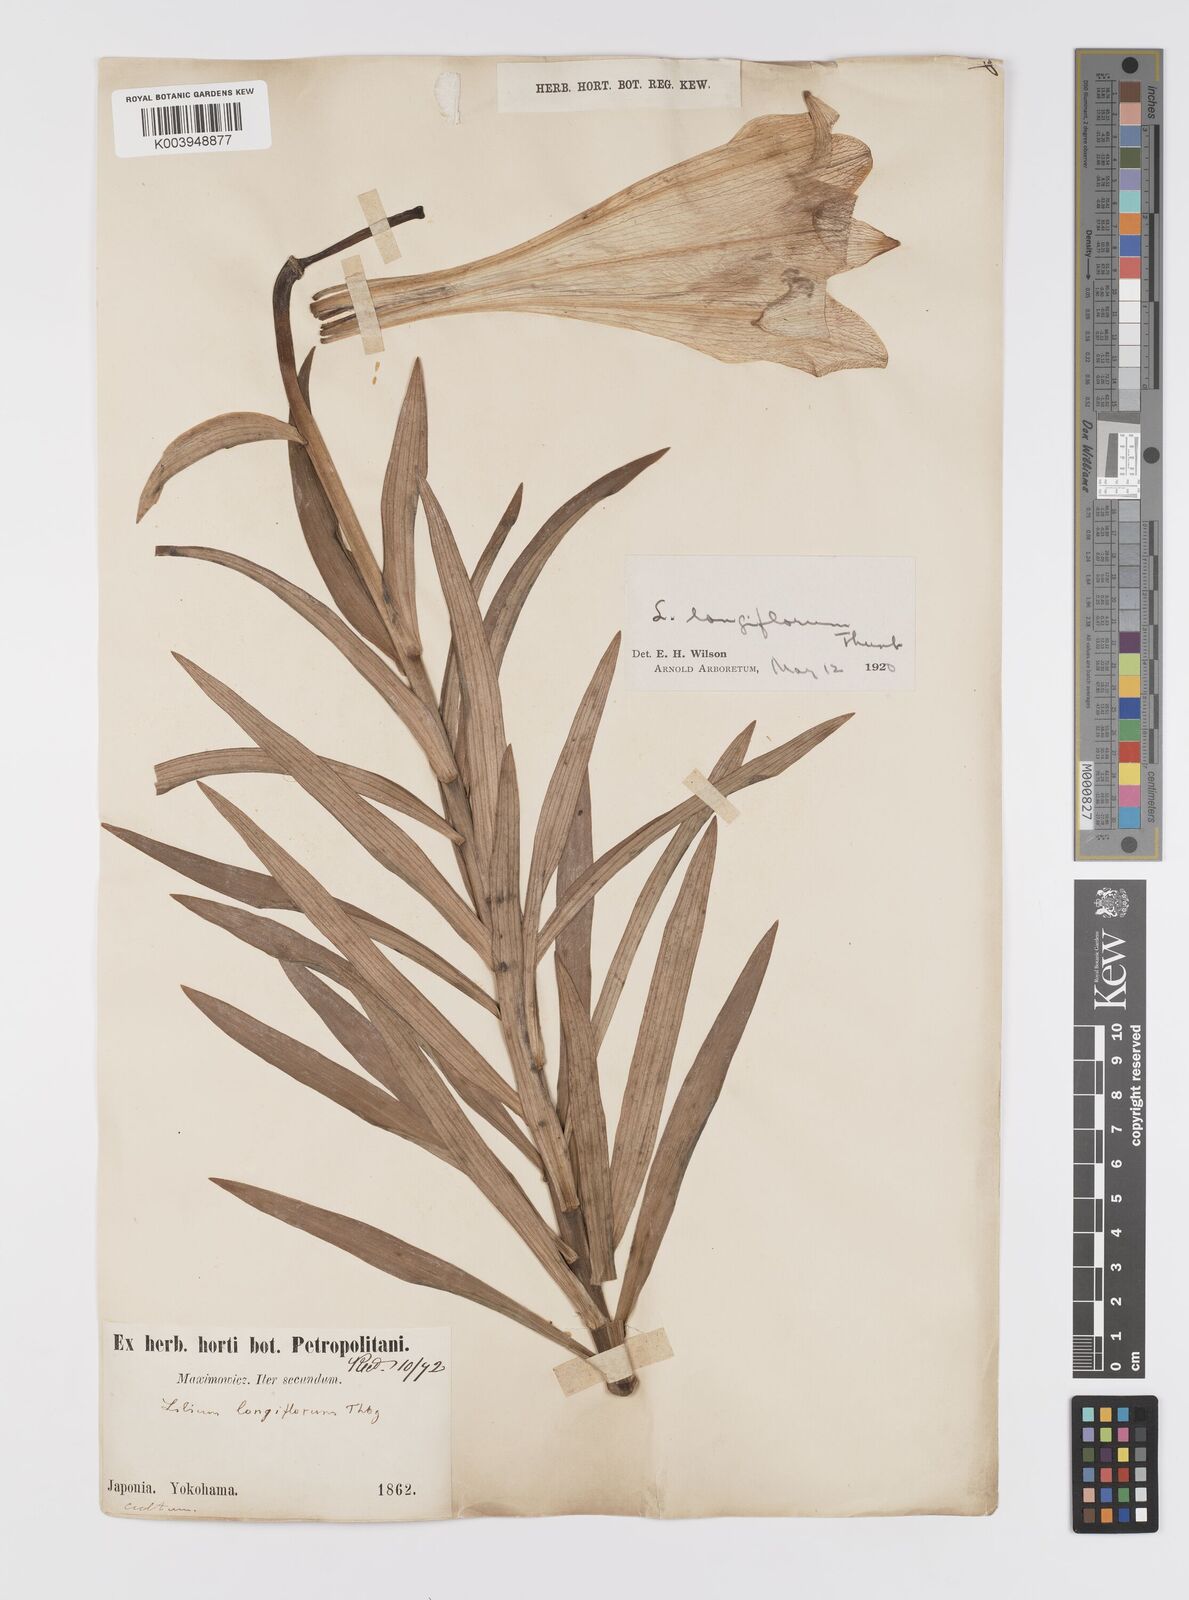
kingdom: Plantae
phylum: Tracheophyta
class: Liliopsida
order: Liliales
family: Liliaceae
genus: Lilium
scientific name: Lilium longiflorum
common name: Easter lily
